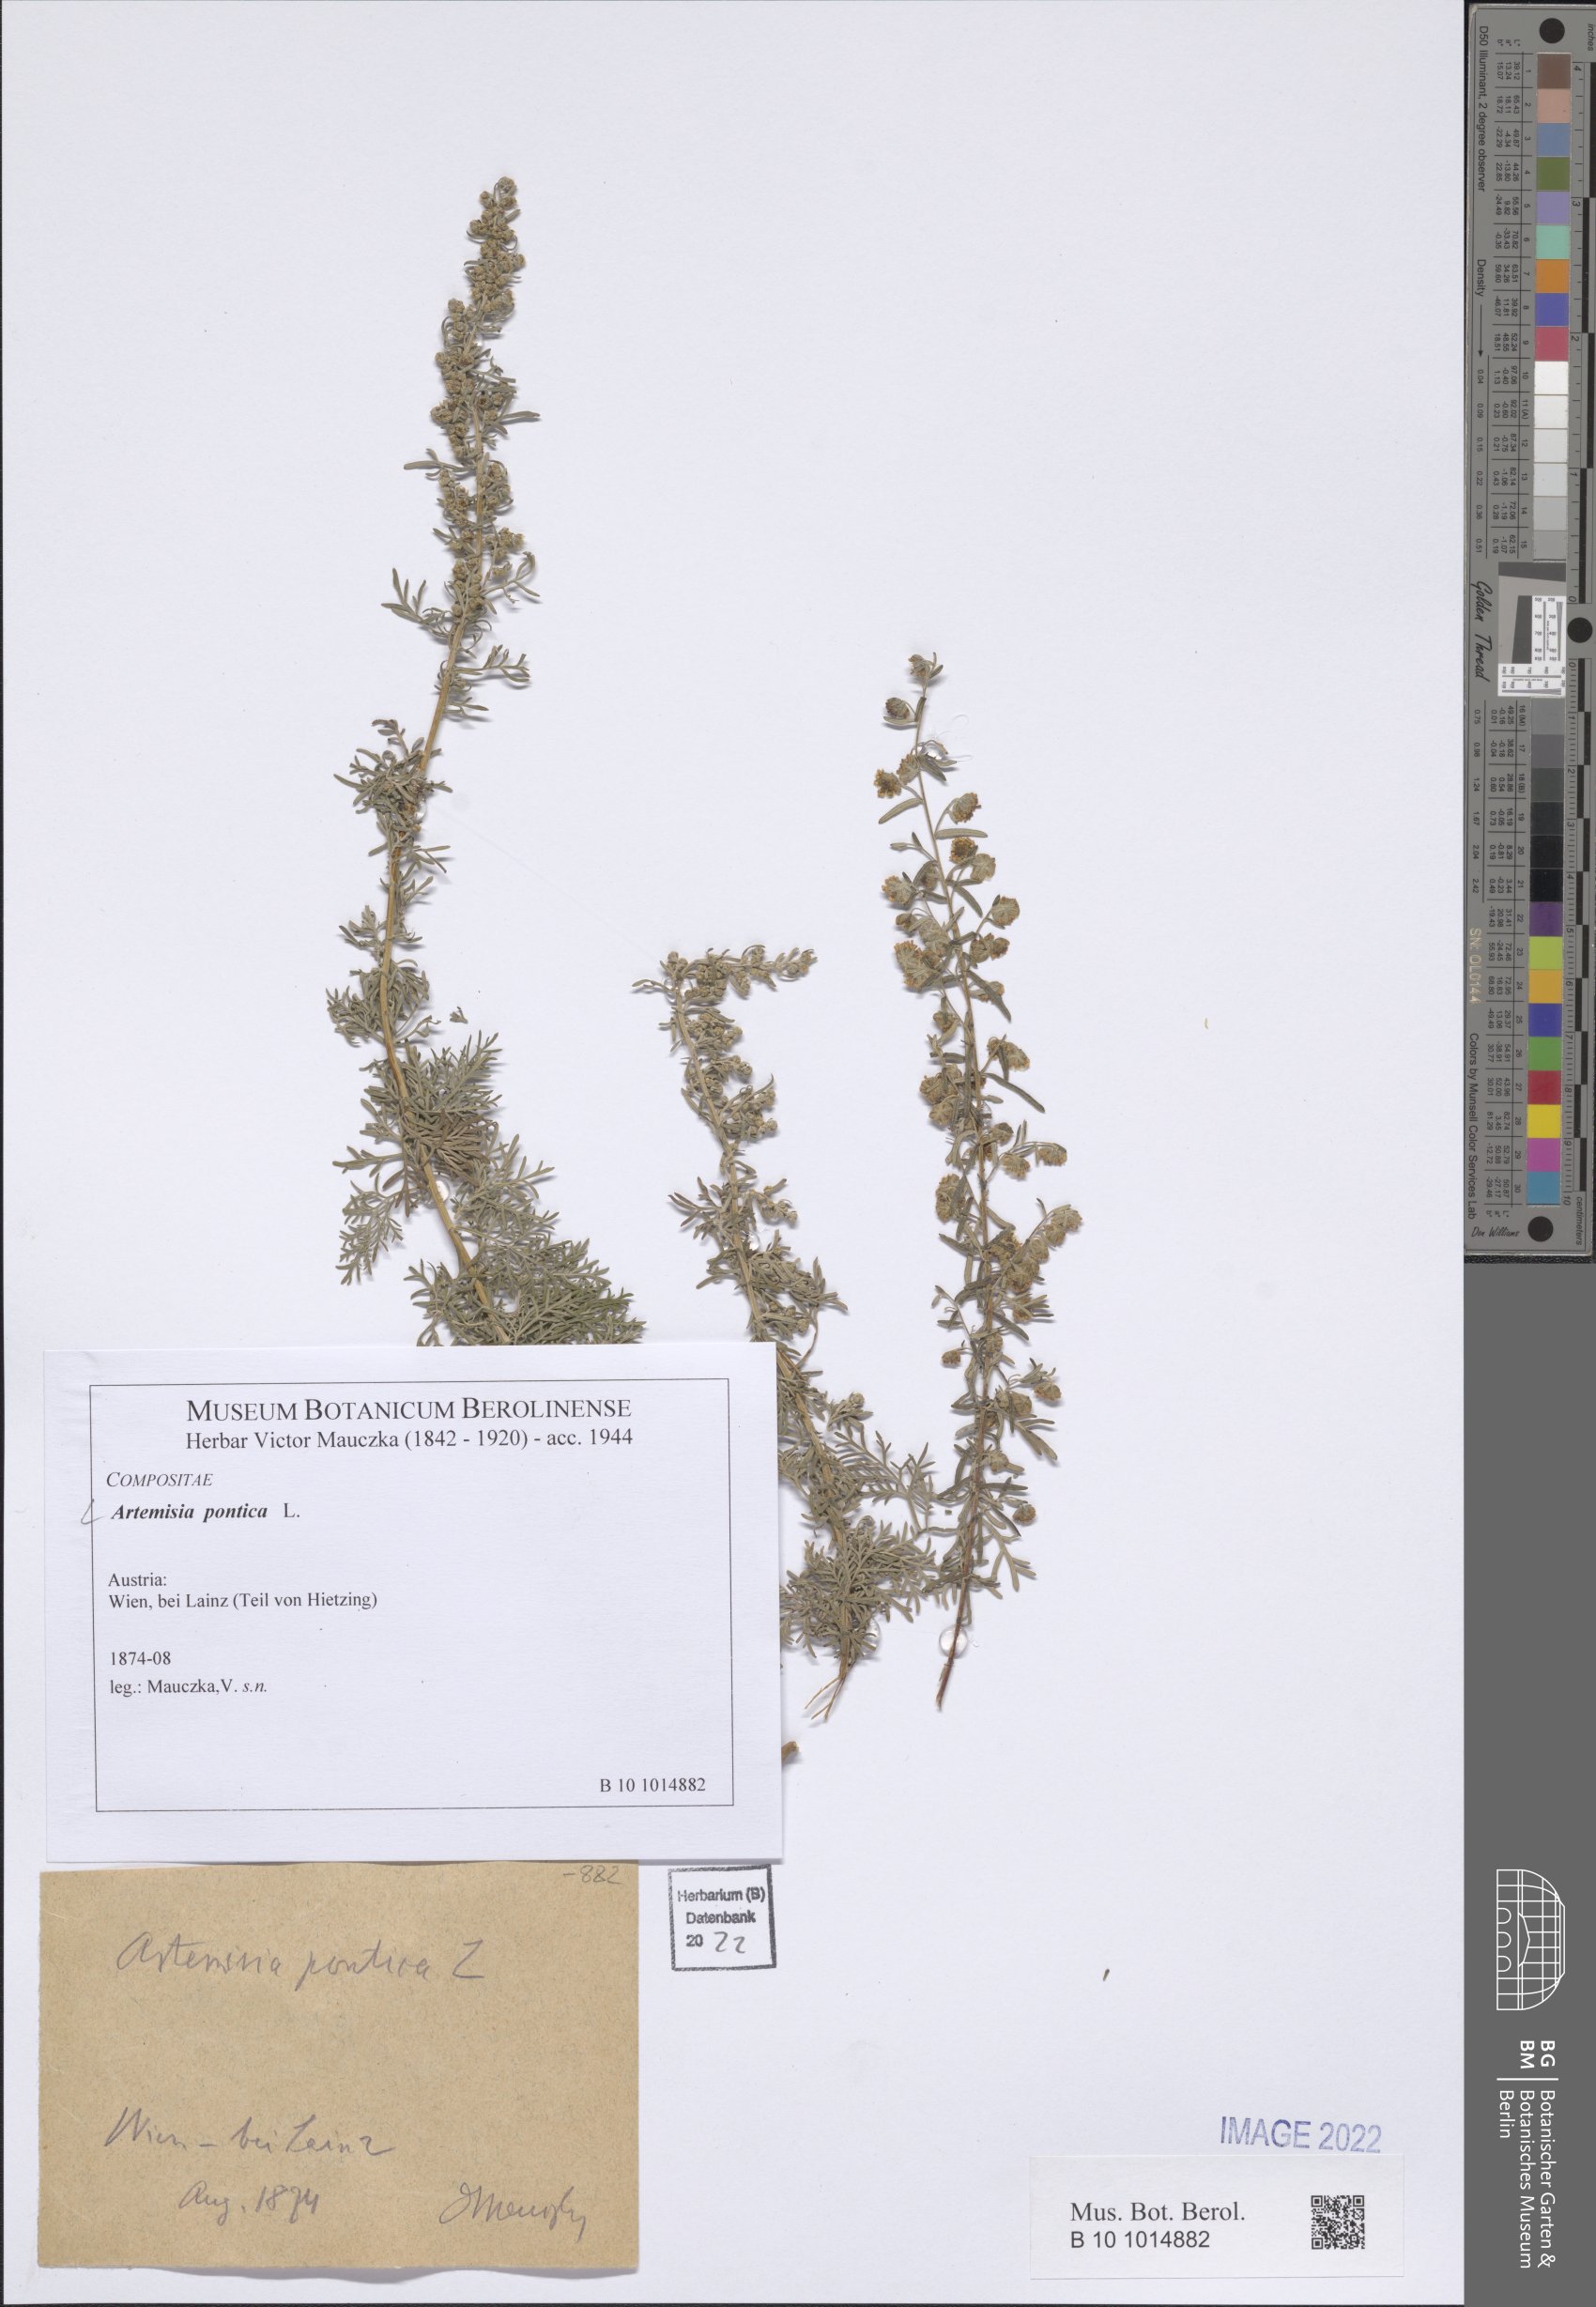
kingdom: Plantae
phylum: Tracheophyta
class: Magnoliopsida
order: Asterales
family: Asteraceae
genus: Artemisia
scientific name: Artemisia pontica
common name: Roman wormwood
